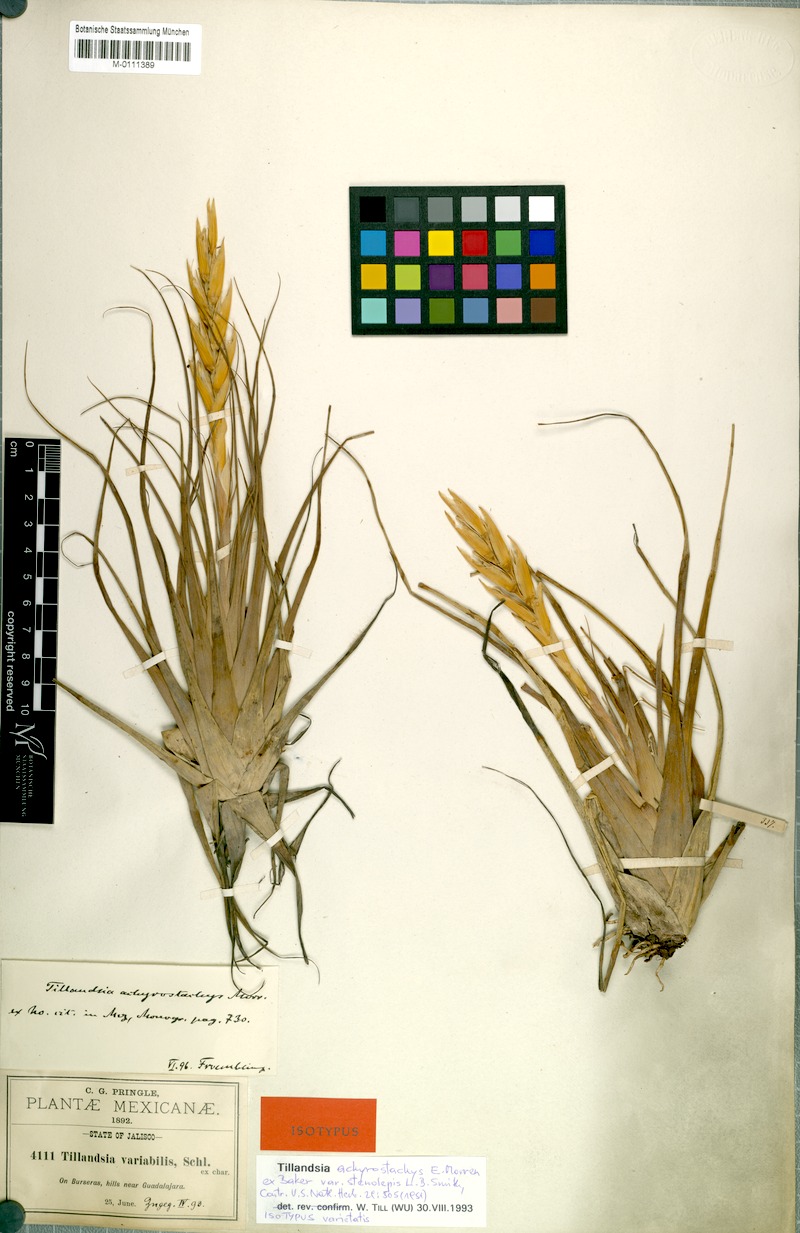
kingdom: Plantae
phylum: Tracheophyta
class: Liliopsida
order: Poales
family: Bromeliaceae
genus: Tillandsia
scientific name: Tillandsia achyrostachys
